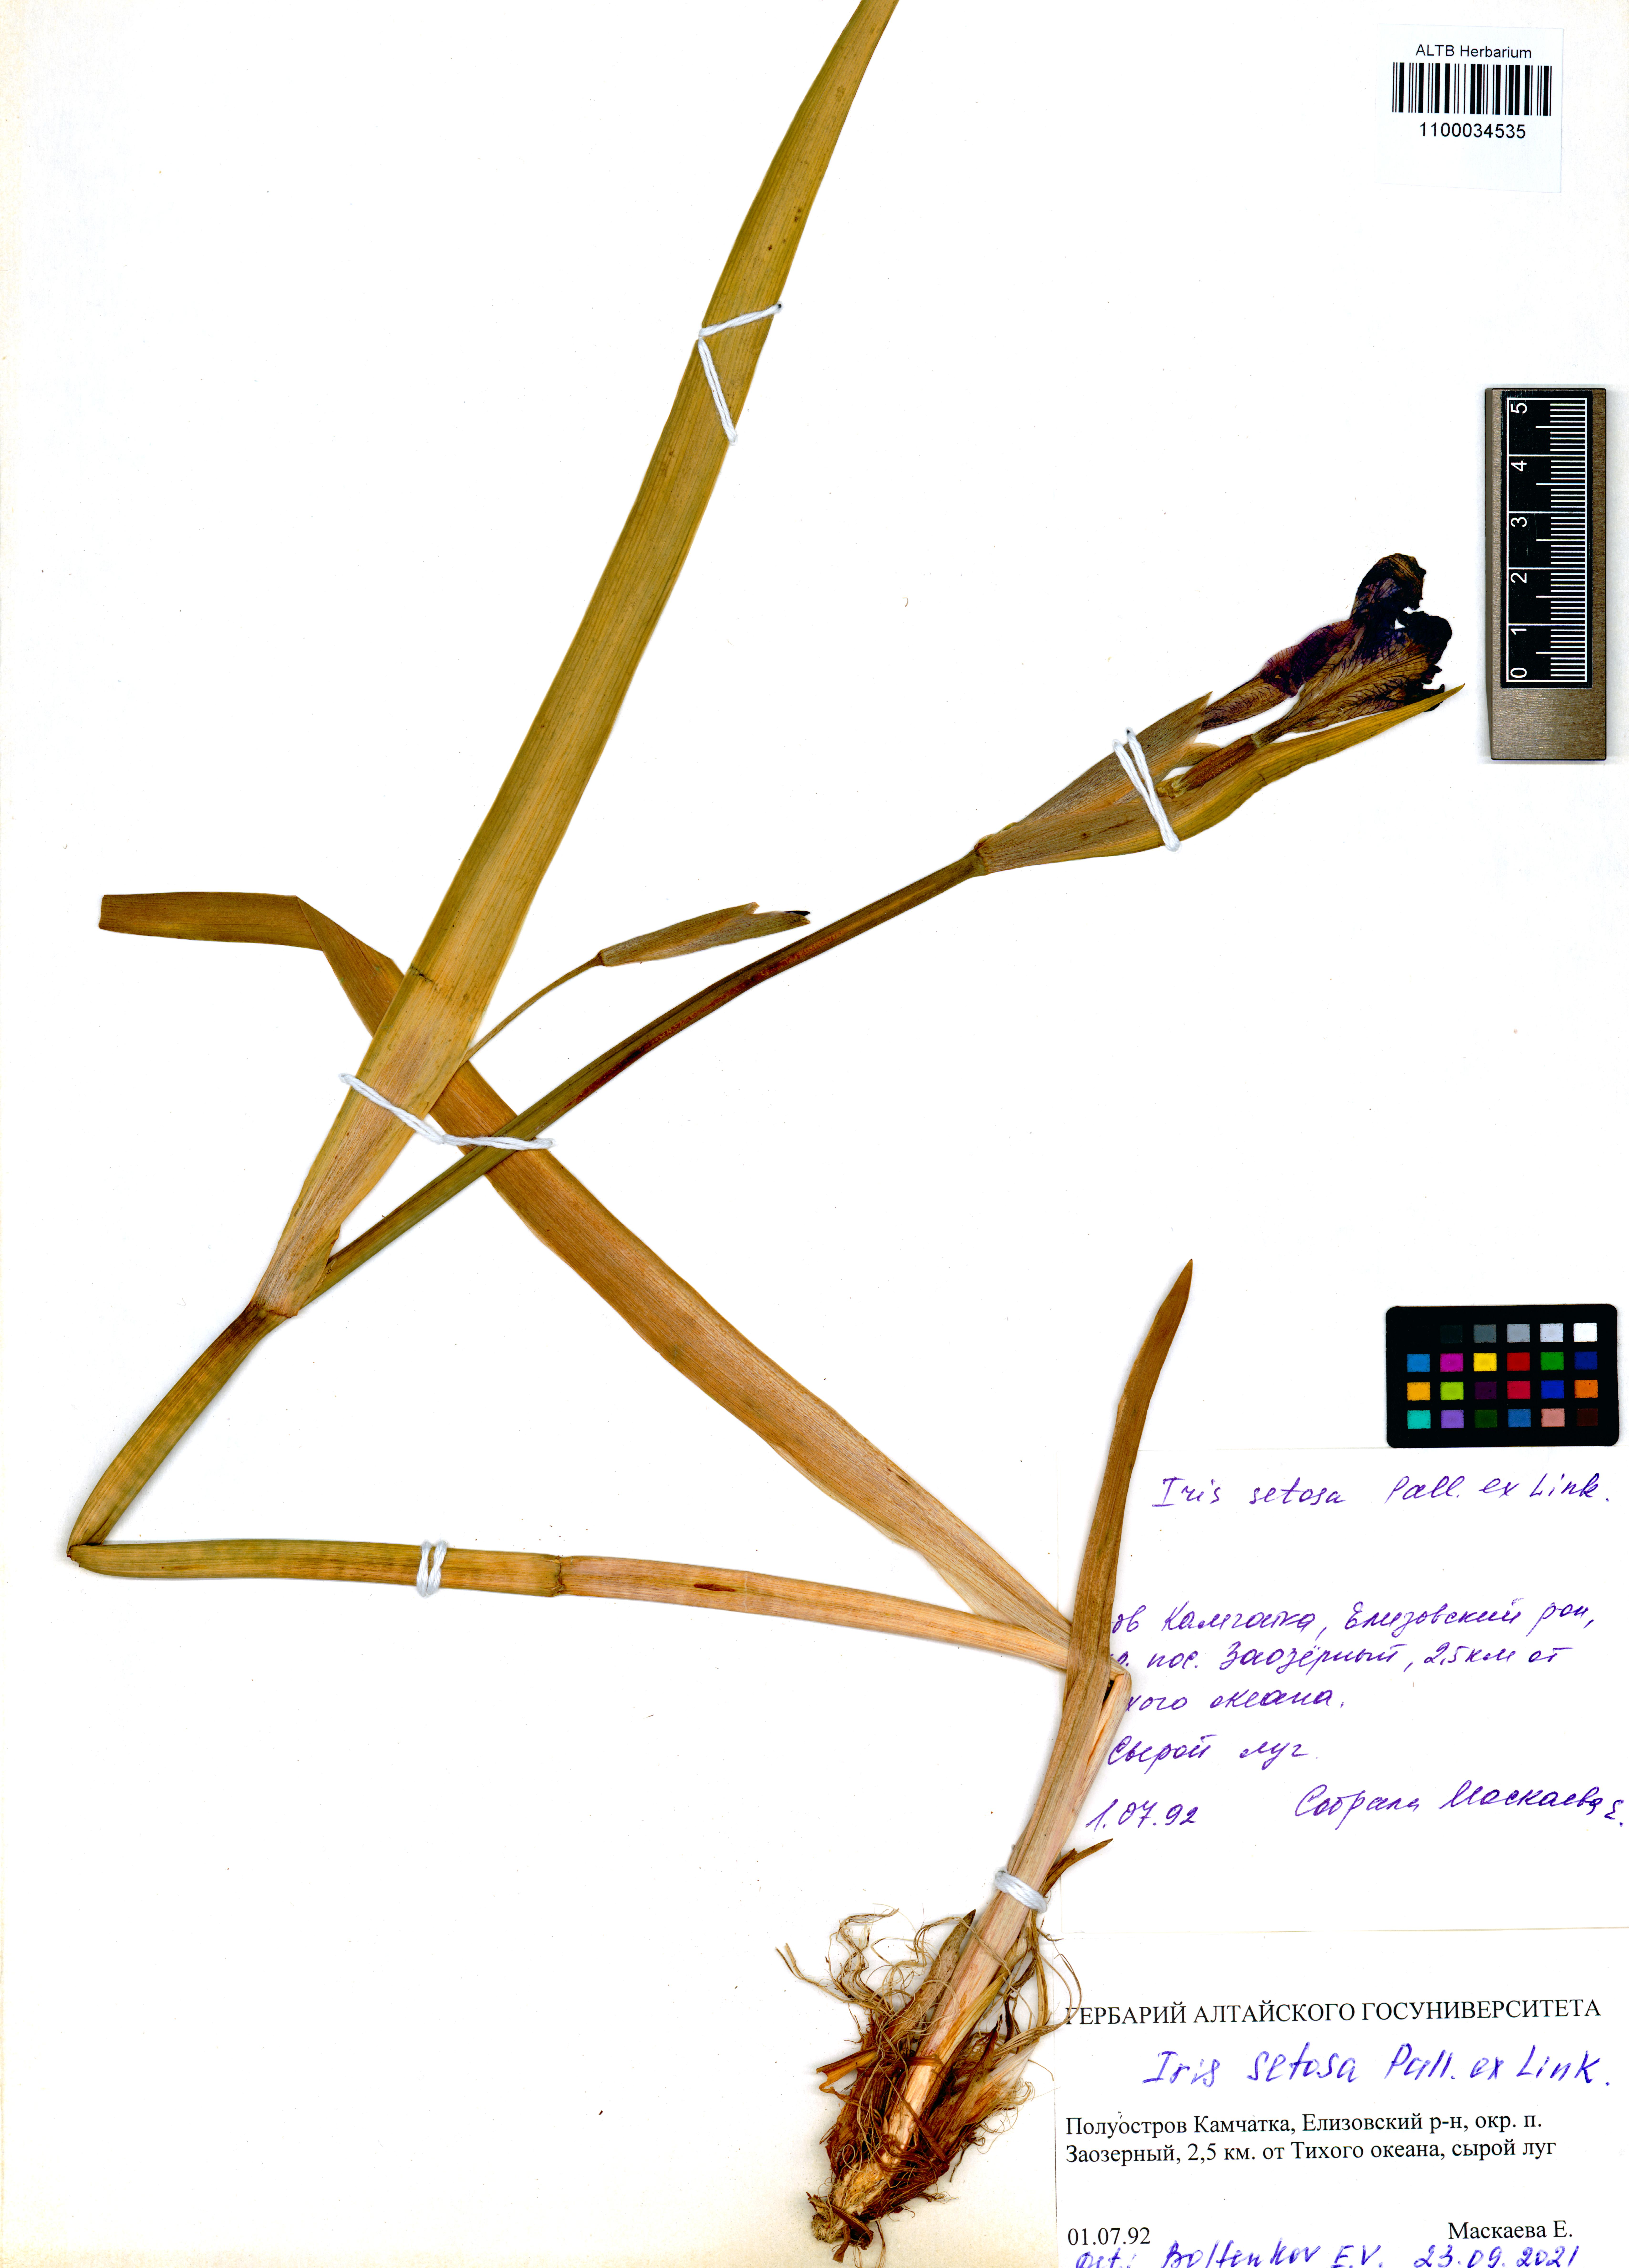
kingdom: Plantae
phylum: Tracheophyta
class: Liliopsida
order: Asparagales
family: Iridaceae
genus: Iris
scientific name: Iris setosa
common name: Arctic blue flag
